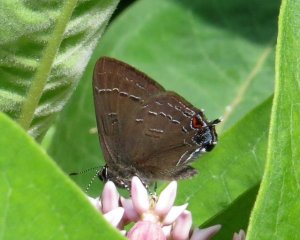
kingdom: Animalia
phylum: Arthropoda
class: Insecta
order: Lepidoptera
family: Lycaenidae
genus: Satyrium
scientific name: Satyrium calanus
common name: Banded Hairstreak
